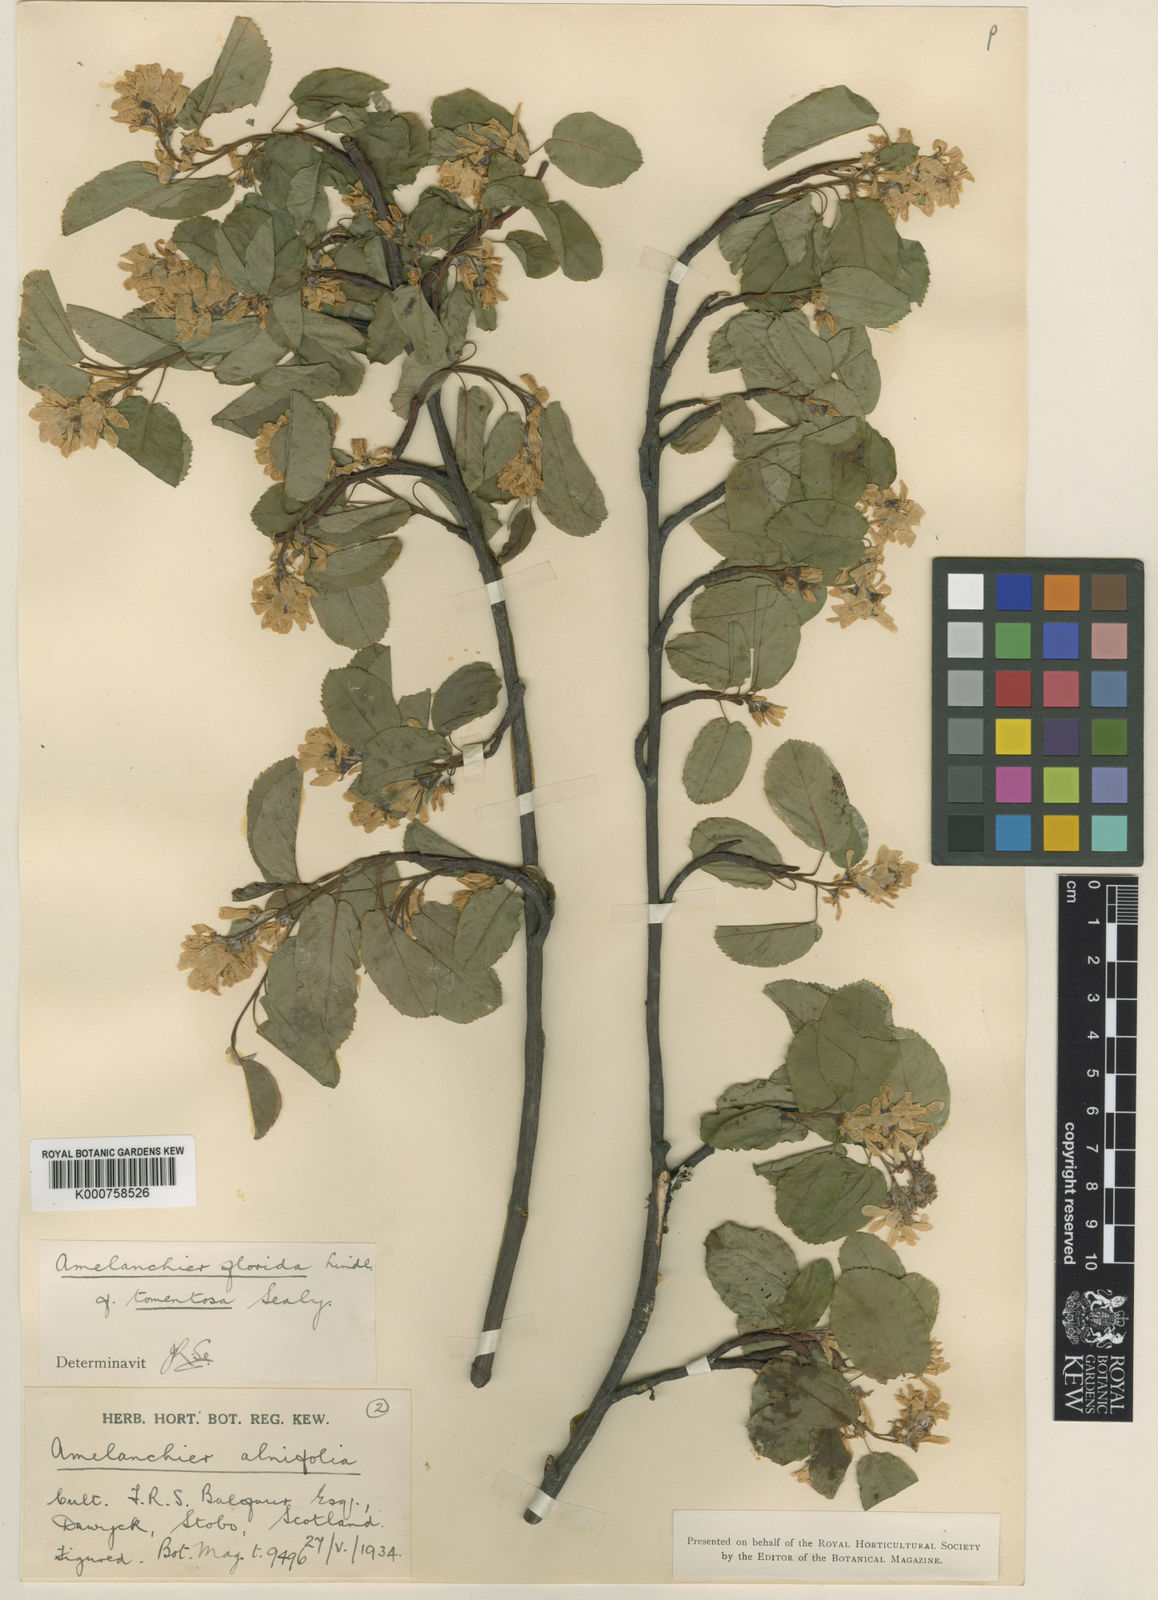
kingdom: Plantae
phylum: Tracheophyta
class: Magnoliopsida
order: Rosales
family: Rosaceae
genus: Amelanchier
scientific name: Amelanchier alnifolia
